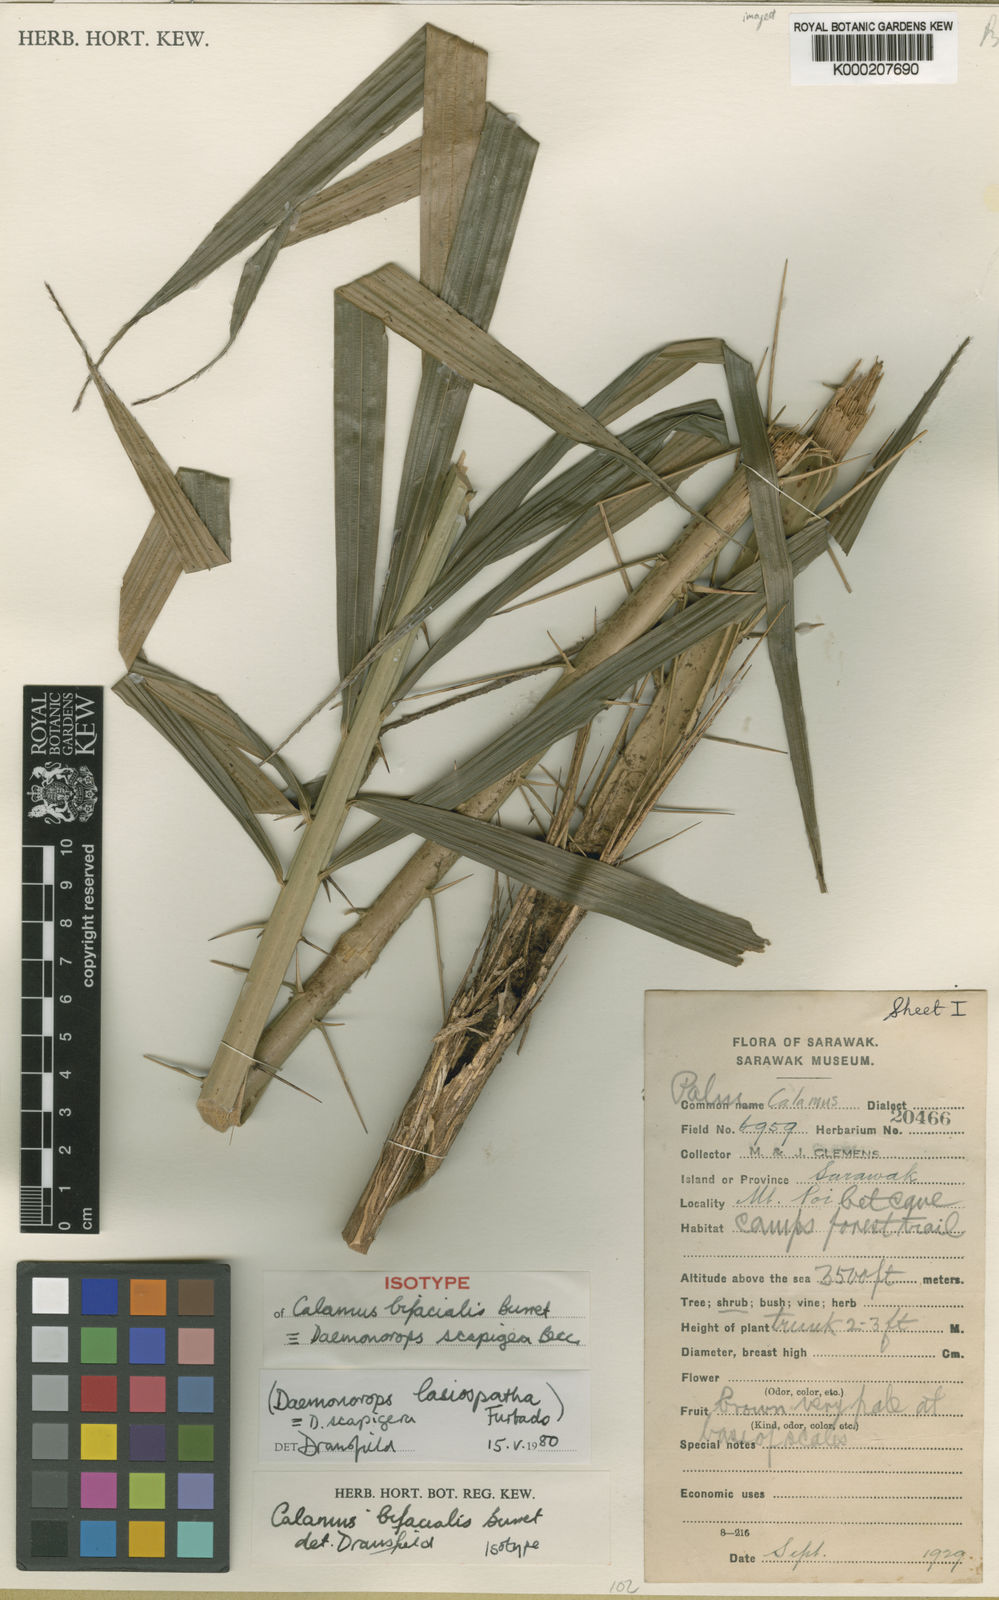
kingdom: Plantae
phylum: Tracheophyta
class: Liliopsida
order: Arecales
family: Arecaceae
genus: Calamus
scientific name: Calamus scapigerus
